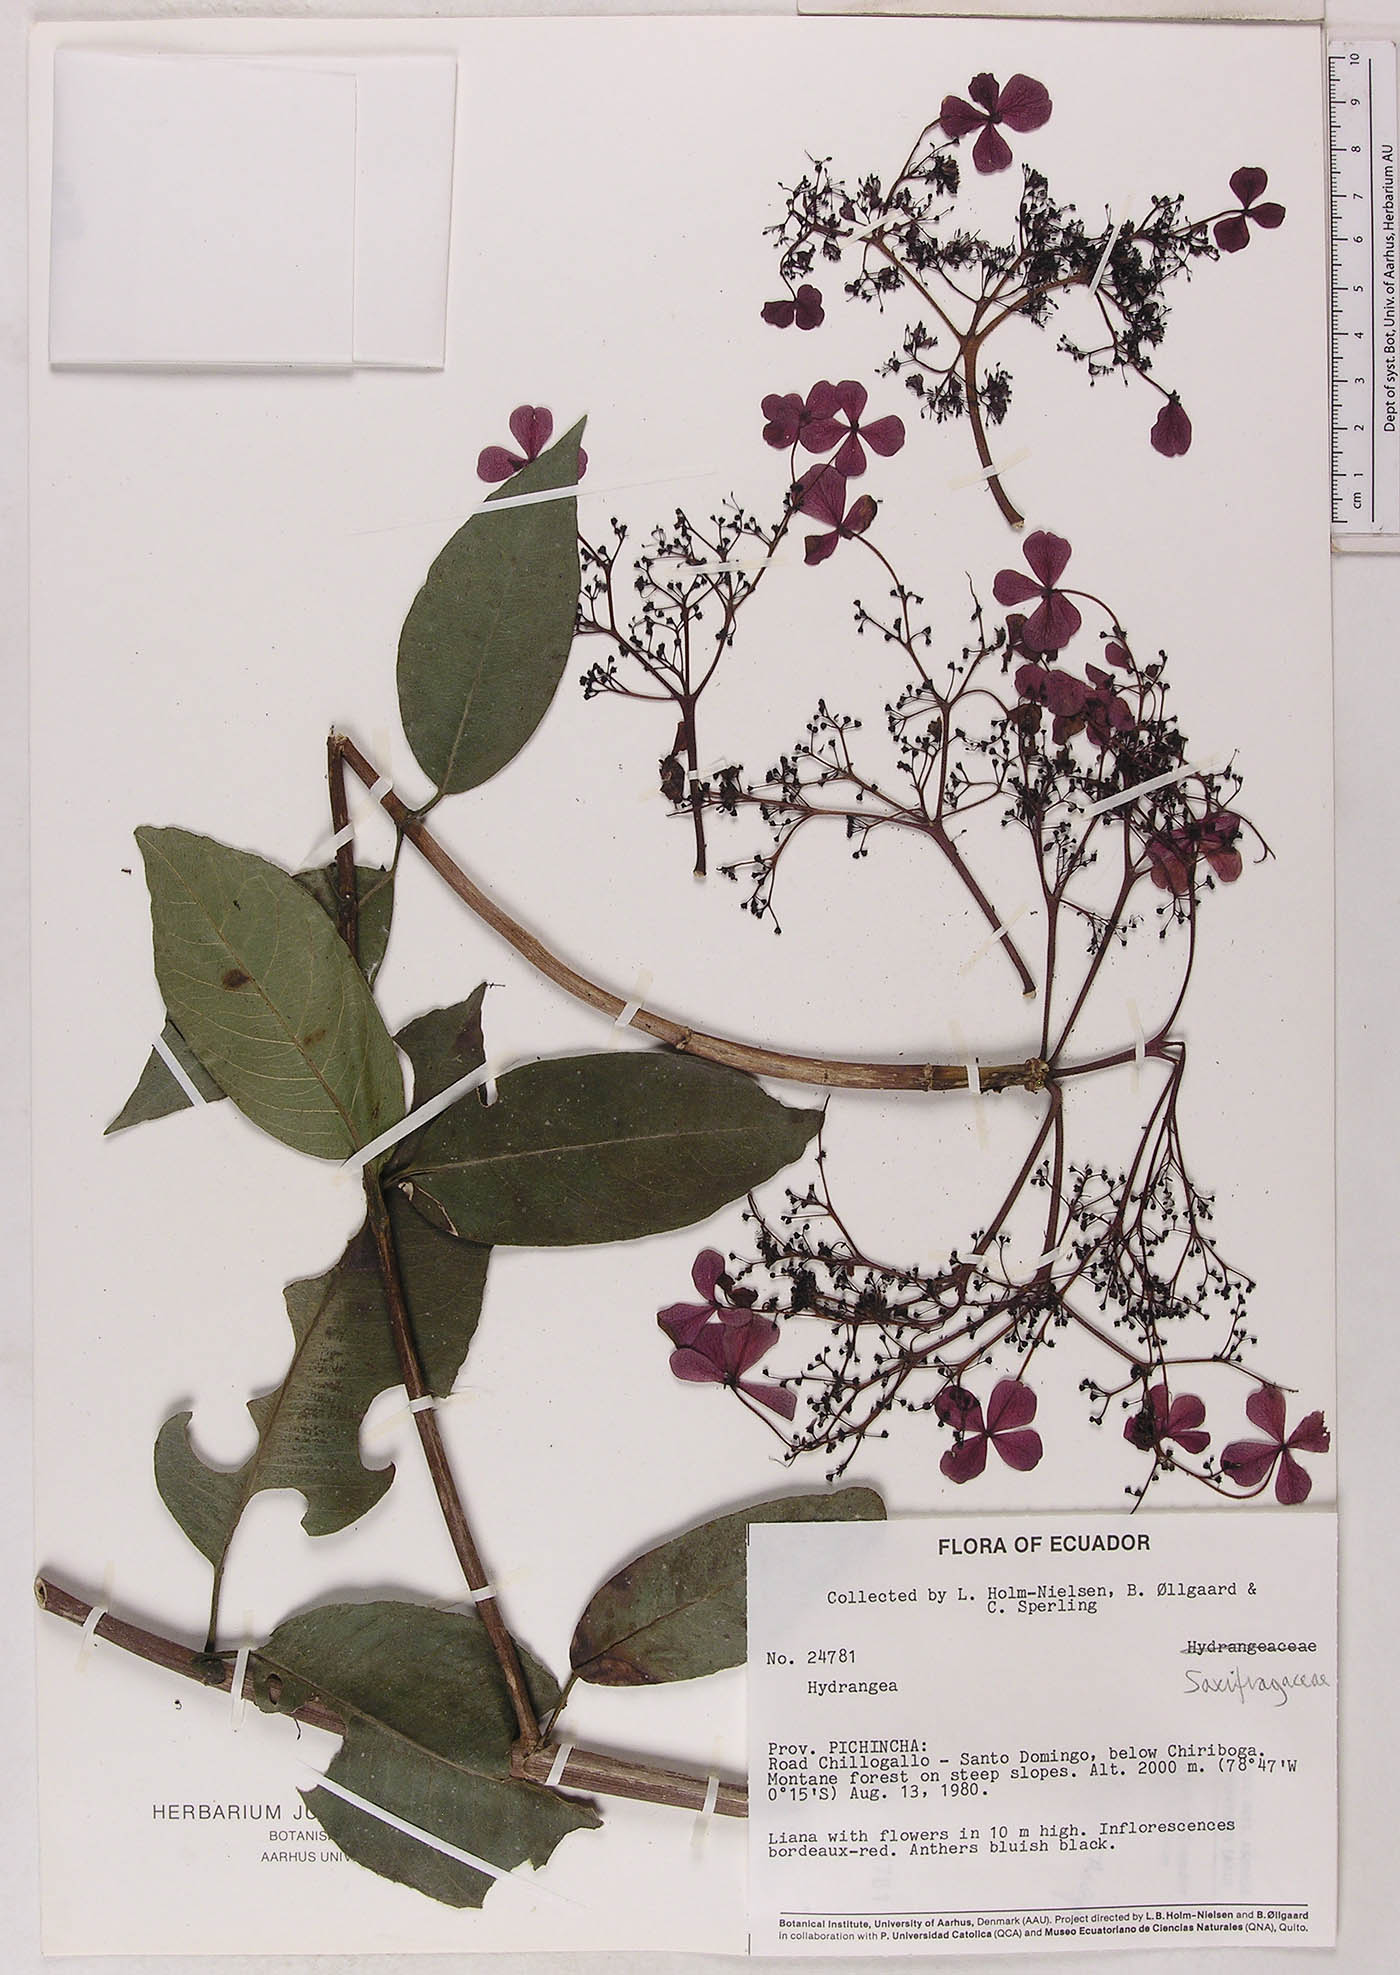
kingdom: Plantae
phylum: Tracheophyta
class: Magnoliopsida
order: Cornales
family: Hydrangeaceae
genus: Hydrangea
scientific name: Hydrangea
